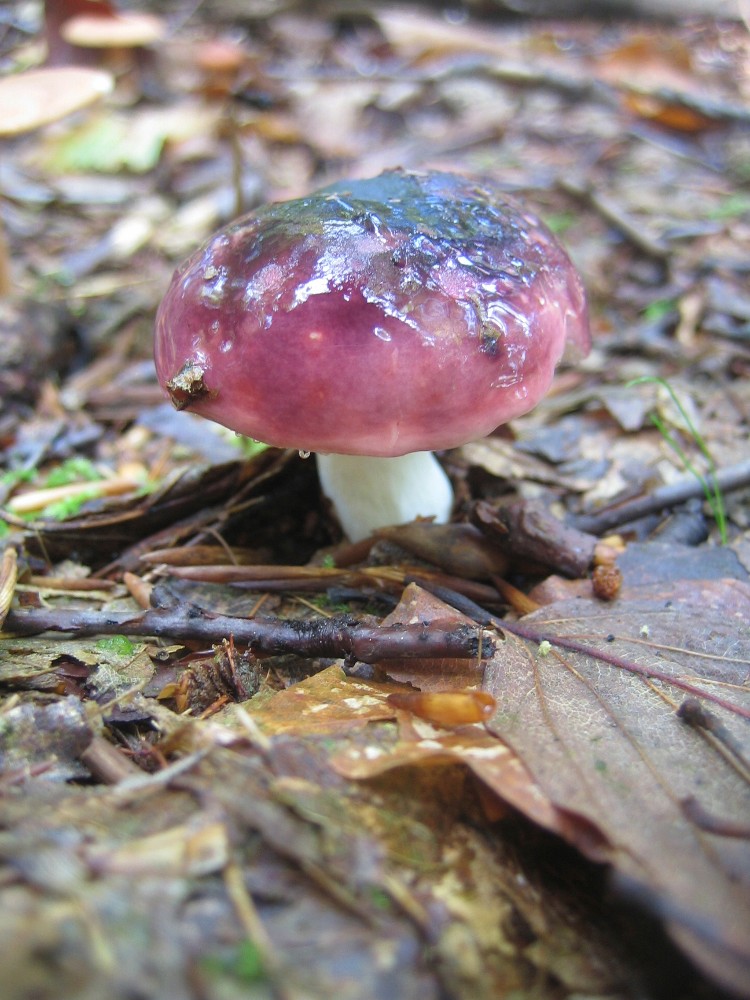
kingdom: Fungi
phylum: Basidiomycota
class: Agaricomycetes
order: Russulales
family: Russulaceae
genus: Russula
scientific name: Russula
